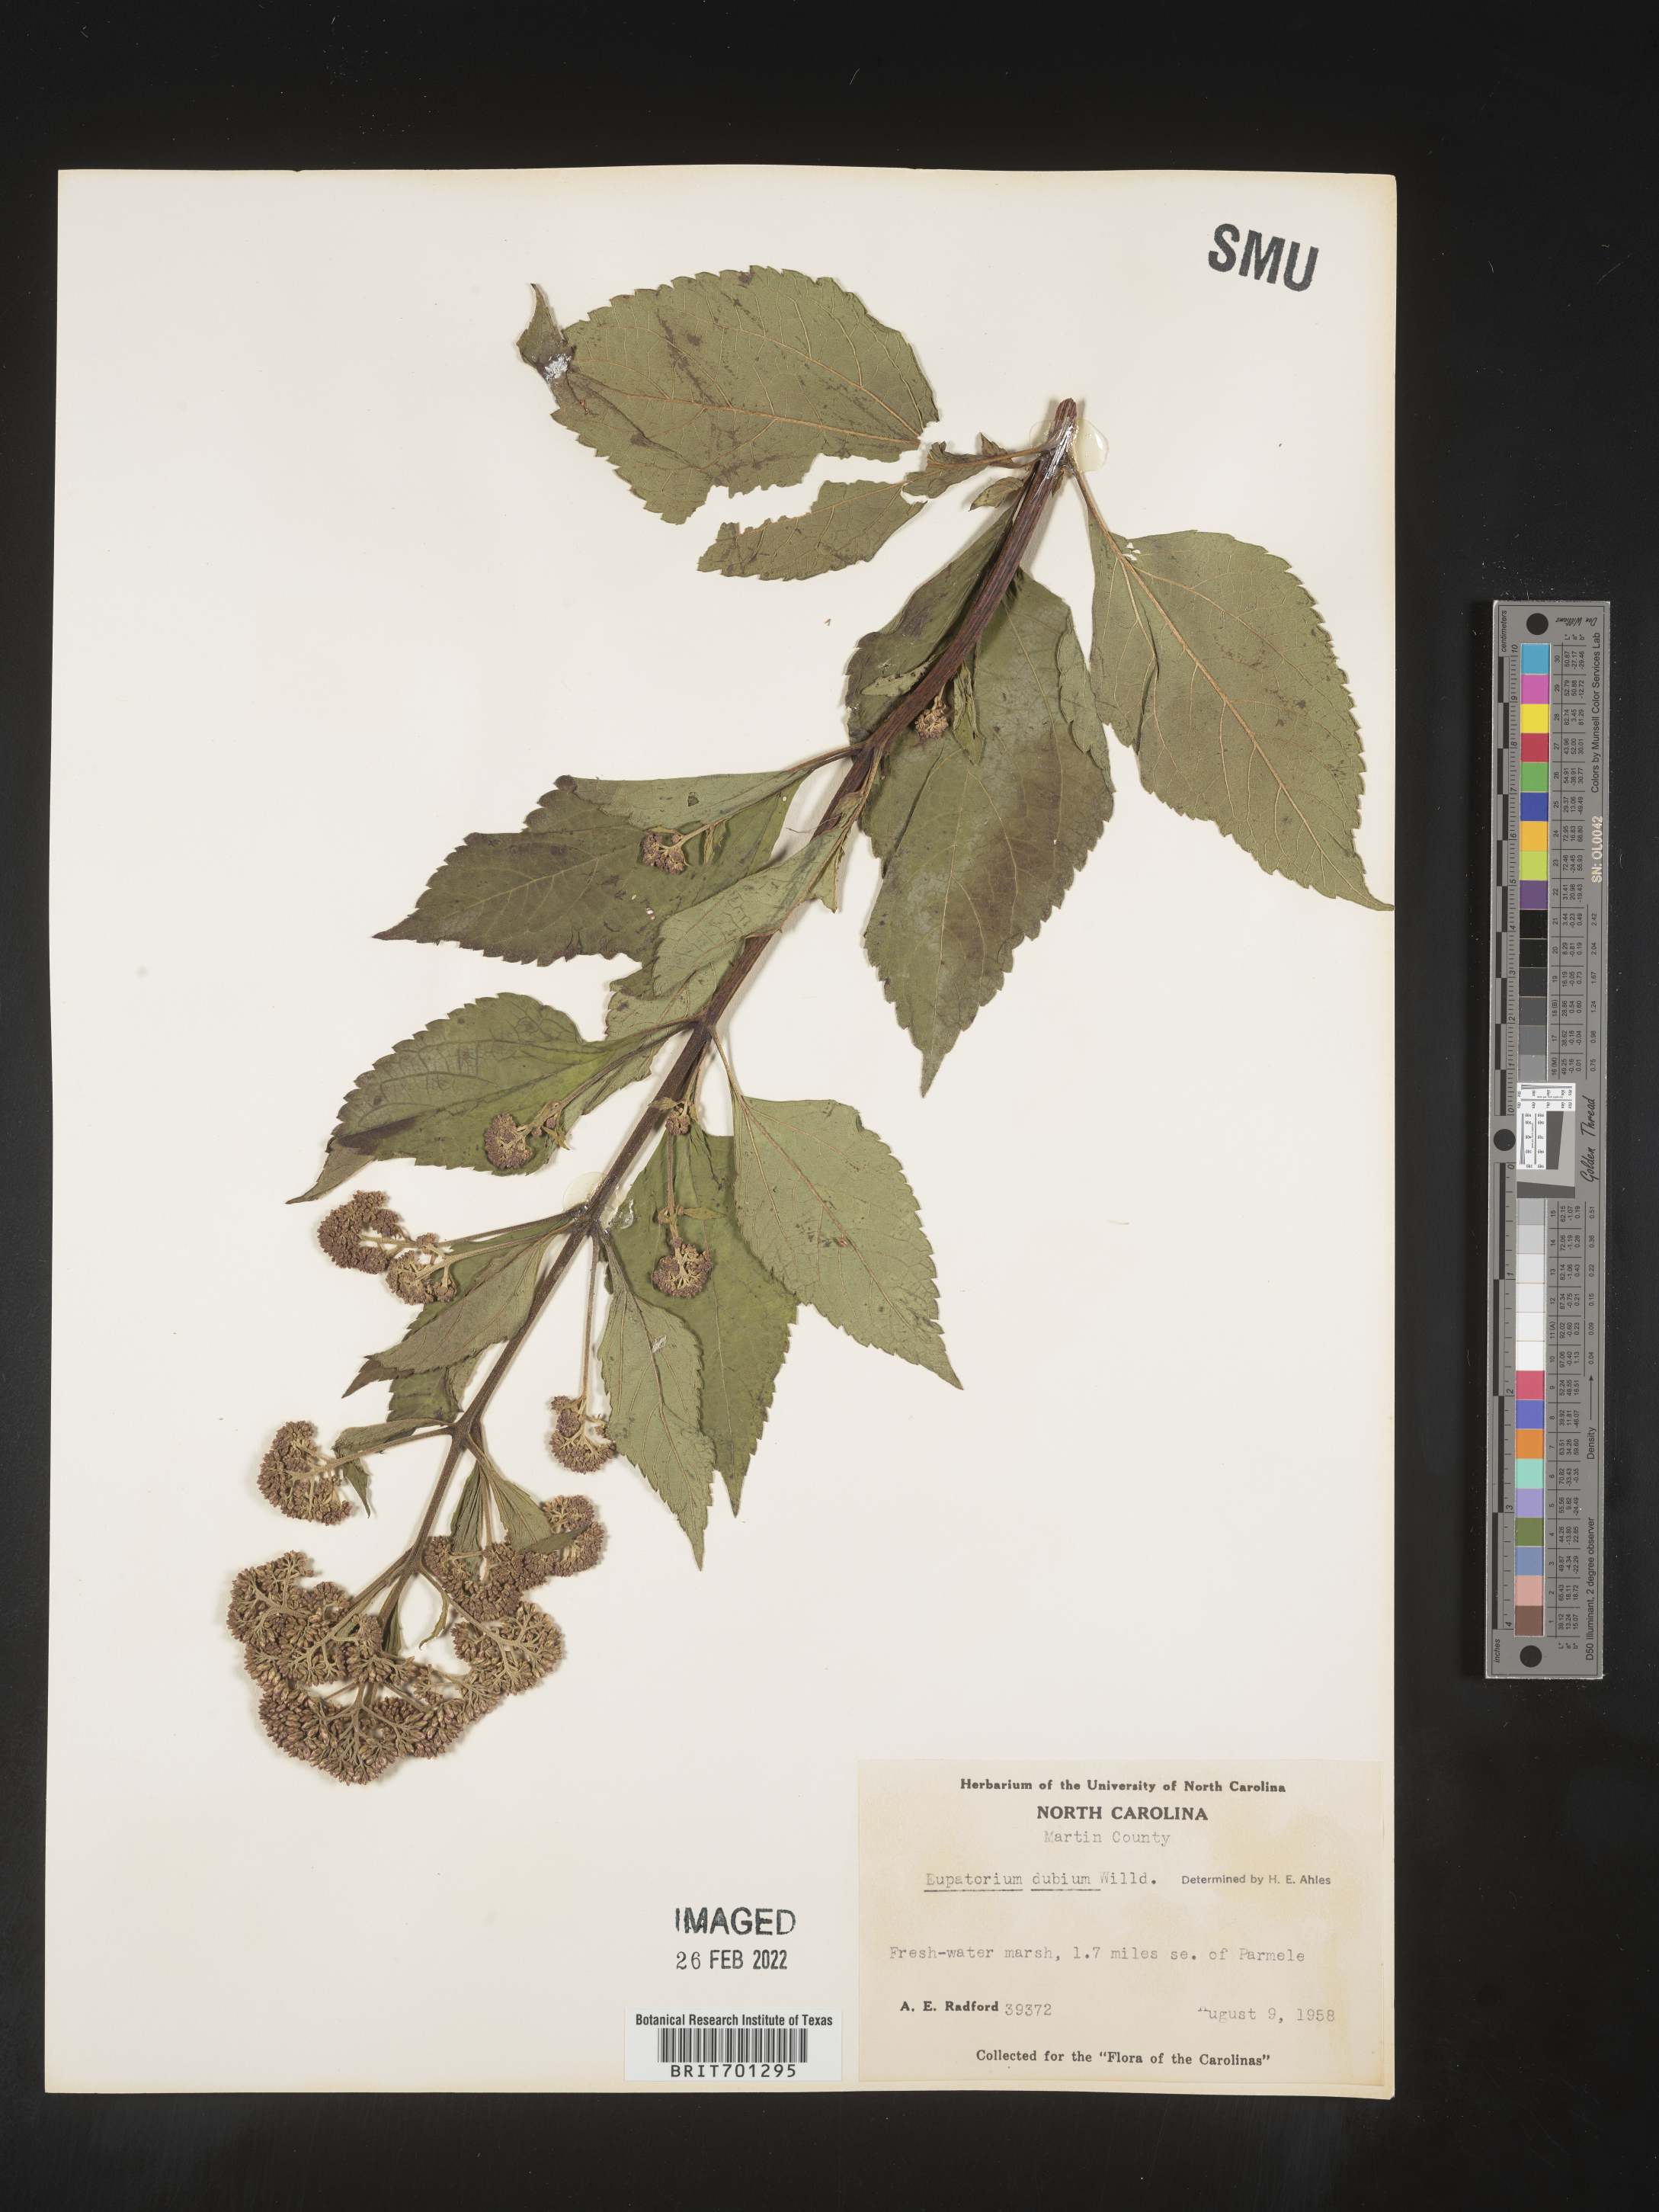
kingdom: Plantae
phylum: Tracheophyta
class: Magnoliopsida
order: Asterales
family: Asteraceae
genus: Eutrochium
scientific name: Eutrochium dubium
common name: Coastal plain joe pye weed
